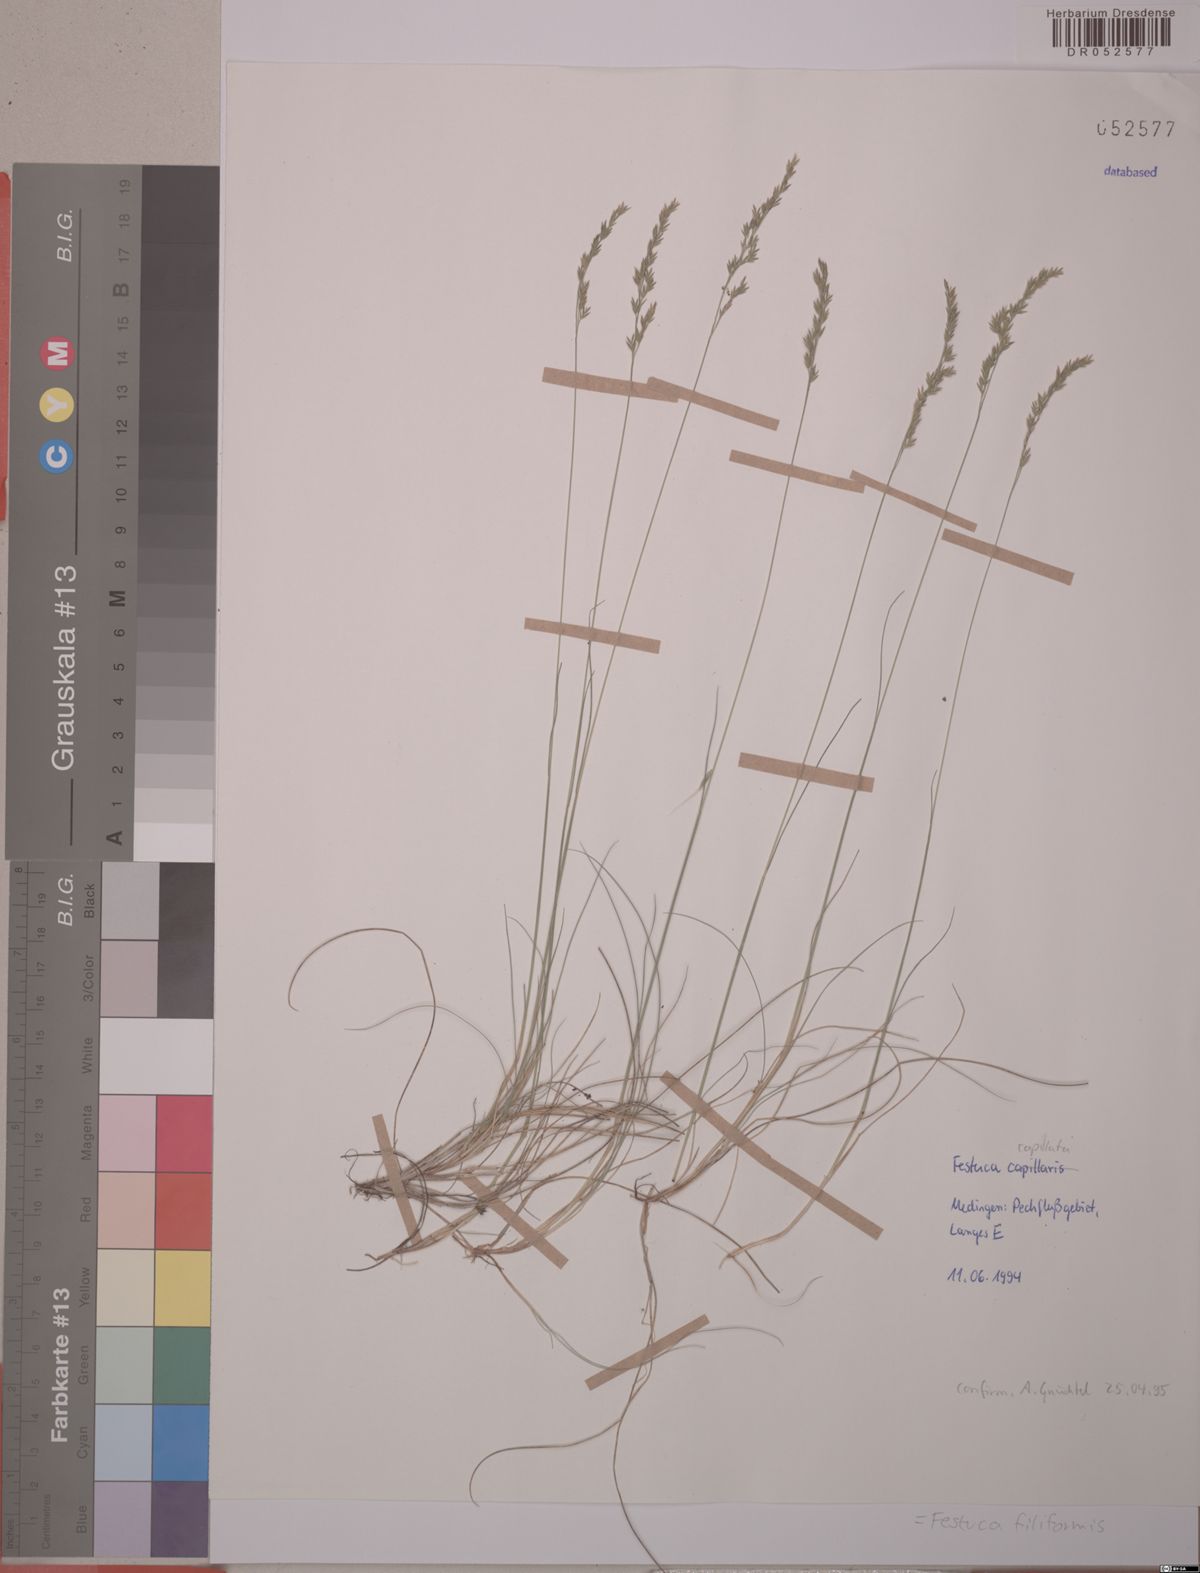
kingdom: Plantae
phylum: Tracheophyta
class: Liliopsida
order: Poales
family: Poaceae
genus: Festuca
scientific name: Festuca filiformis
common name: Fine-leaved sheep's-fescue
